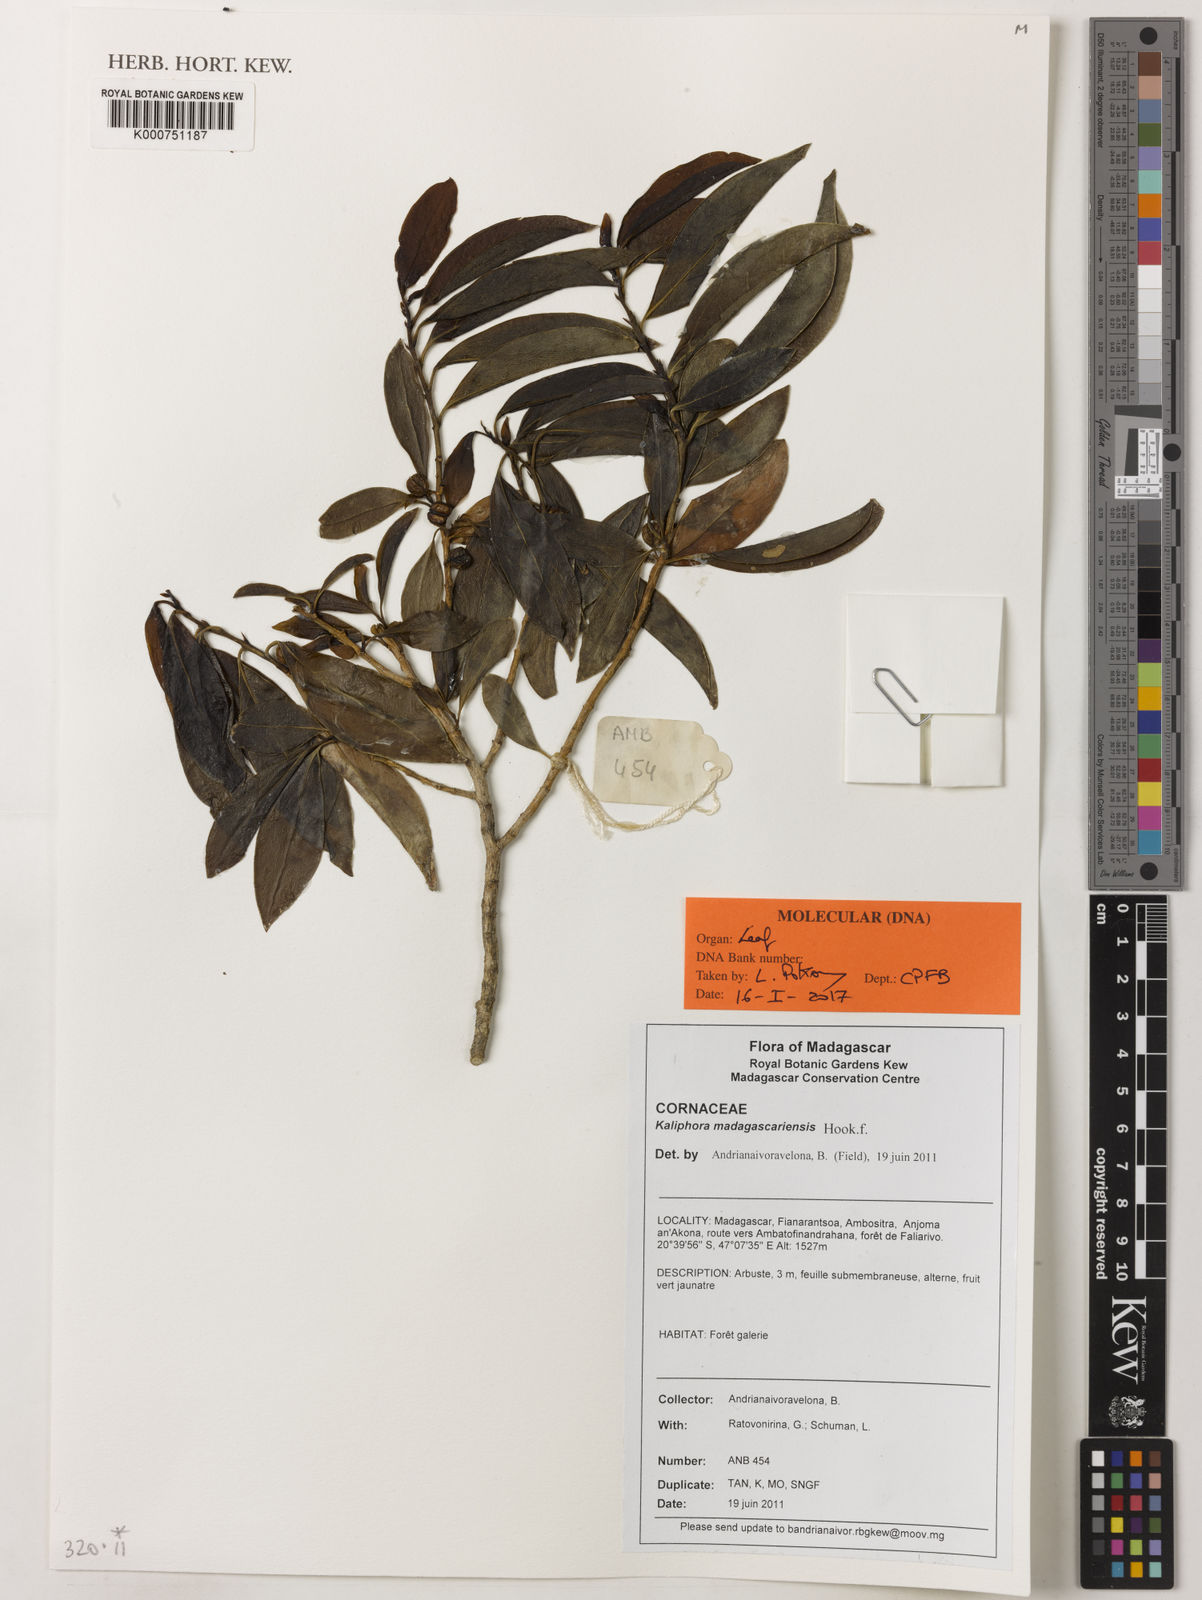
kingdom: Plantae
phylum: Tracheophyta
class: Magnoliopsida
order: Solanales
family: Montiniaceae
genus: Kaliphora
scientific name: Kaliphora madagascariensis
